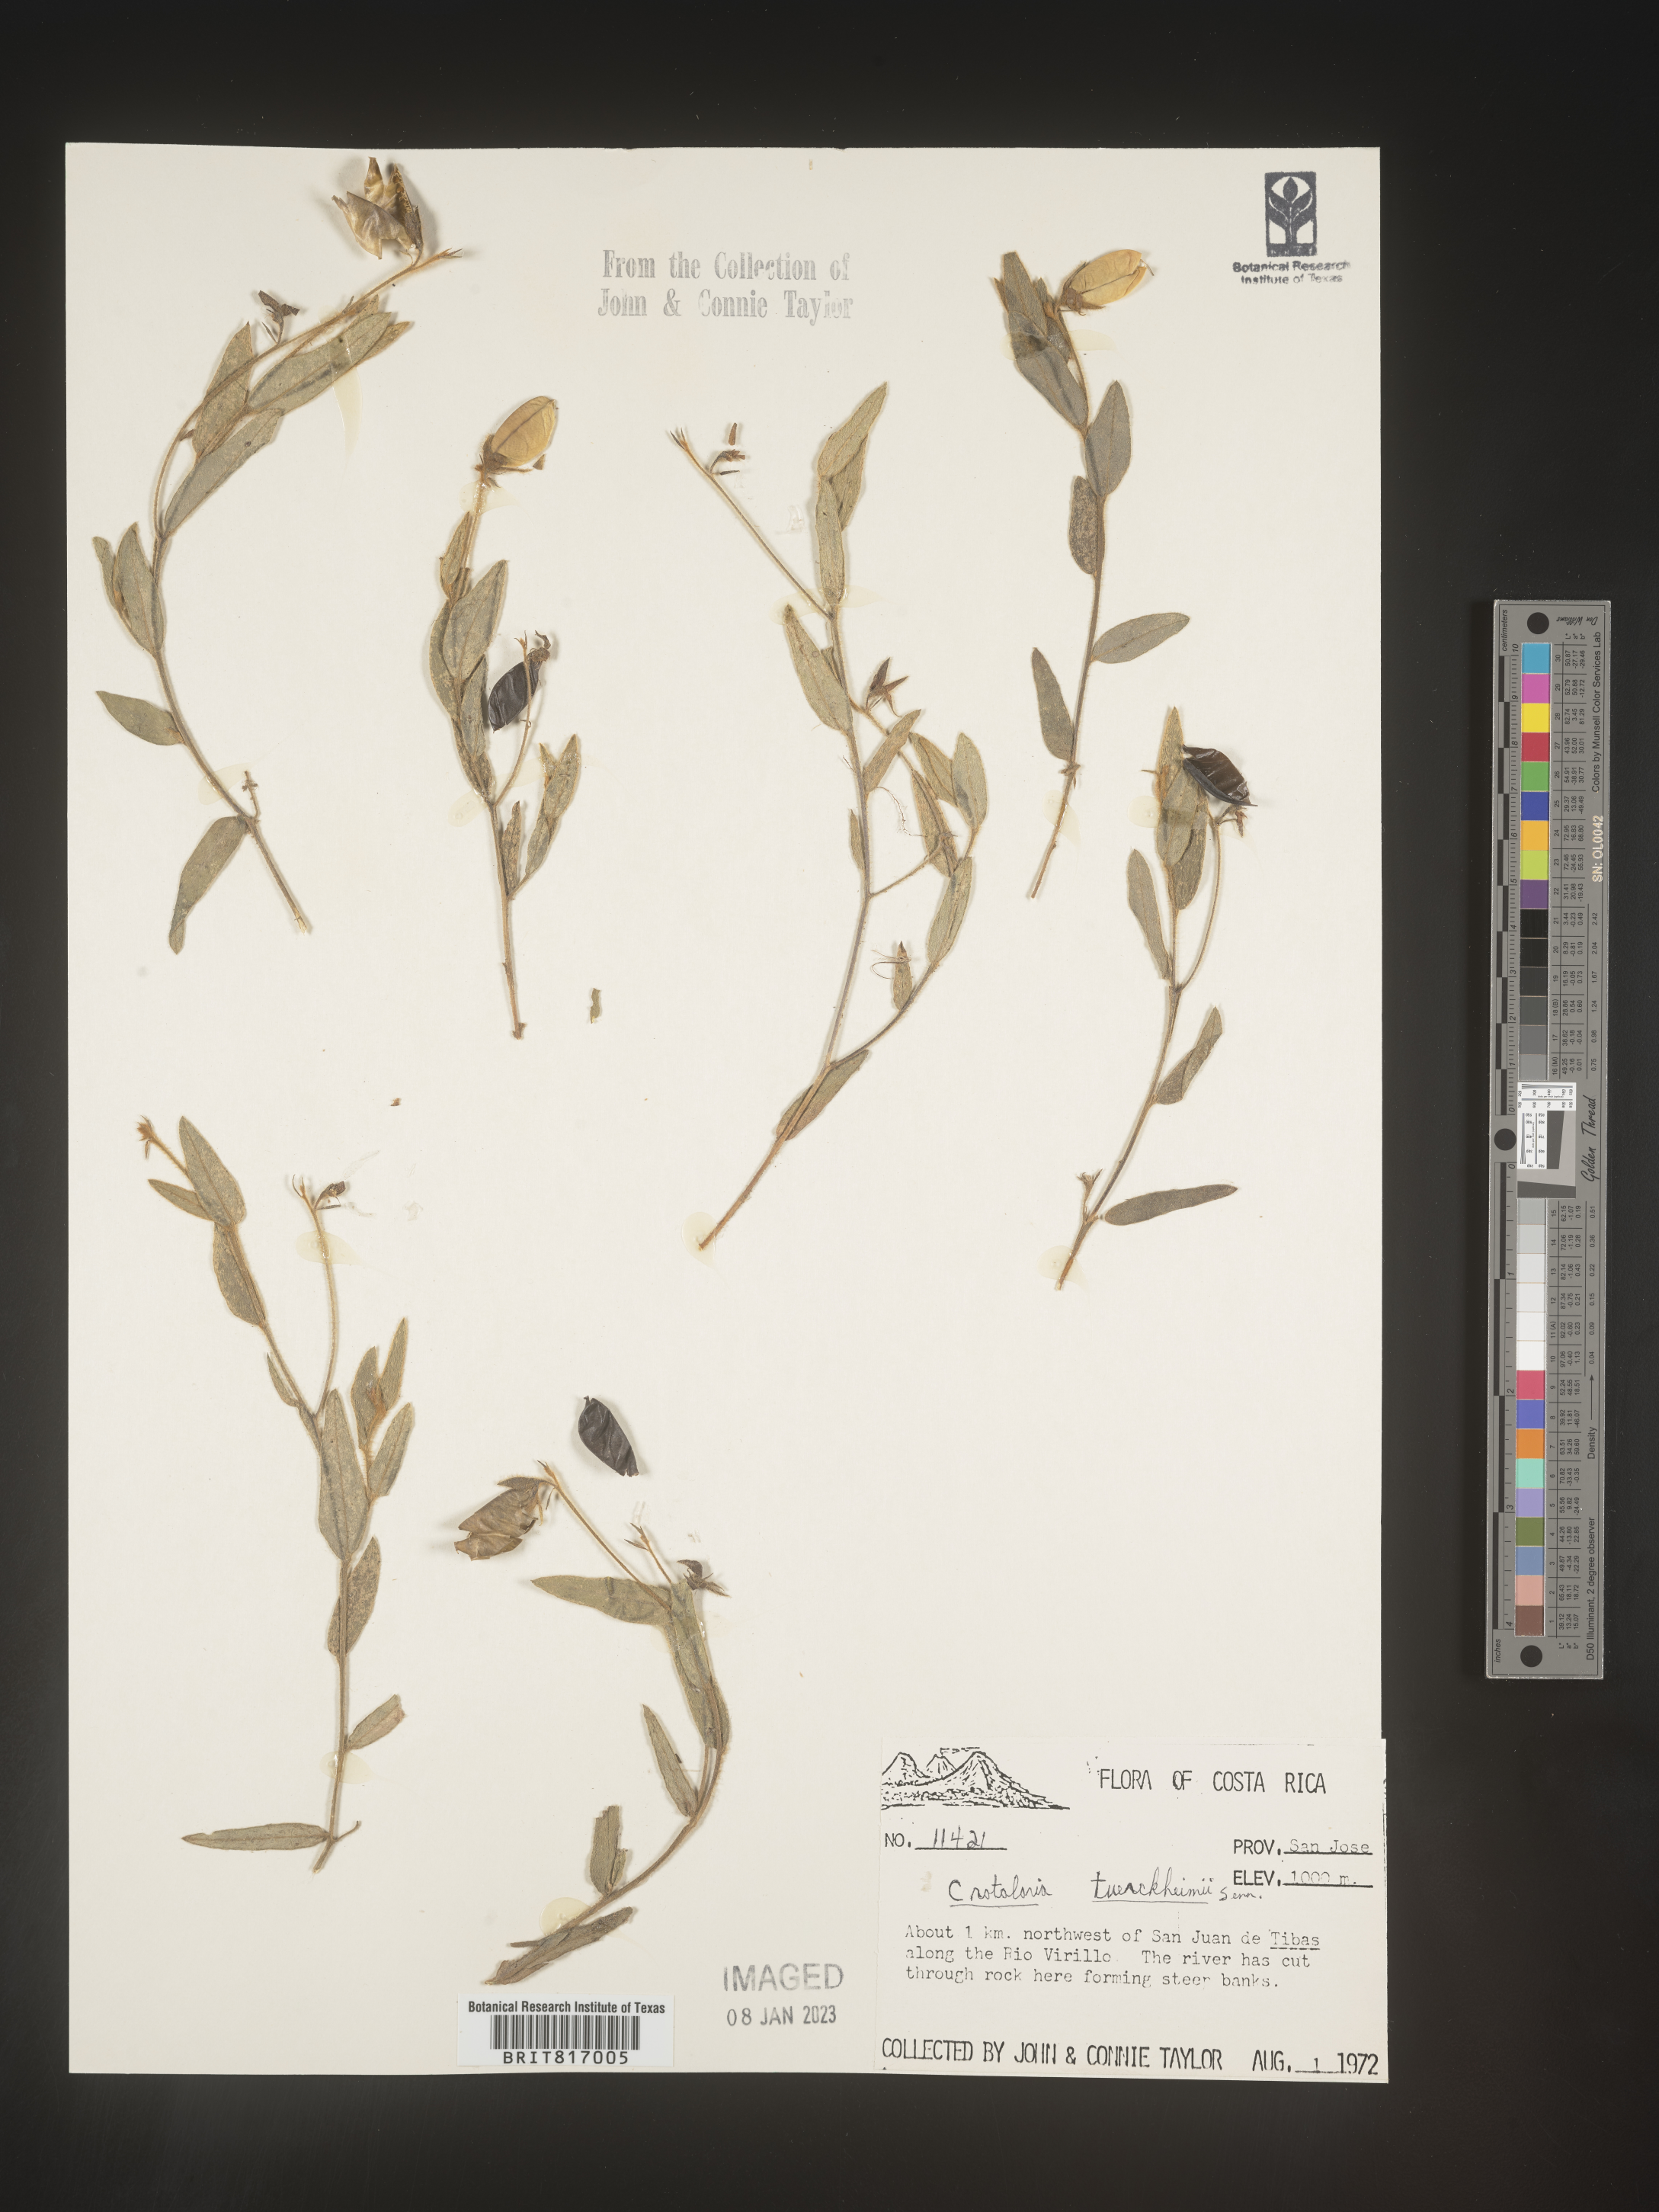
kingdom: Plantae
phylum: Tracheophyta
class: Magnoliopsida
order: Fabales
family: Fabaceae
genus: Crotalaria
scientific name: Crotalaria
